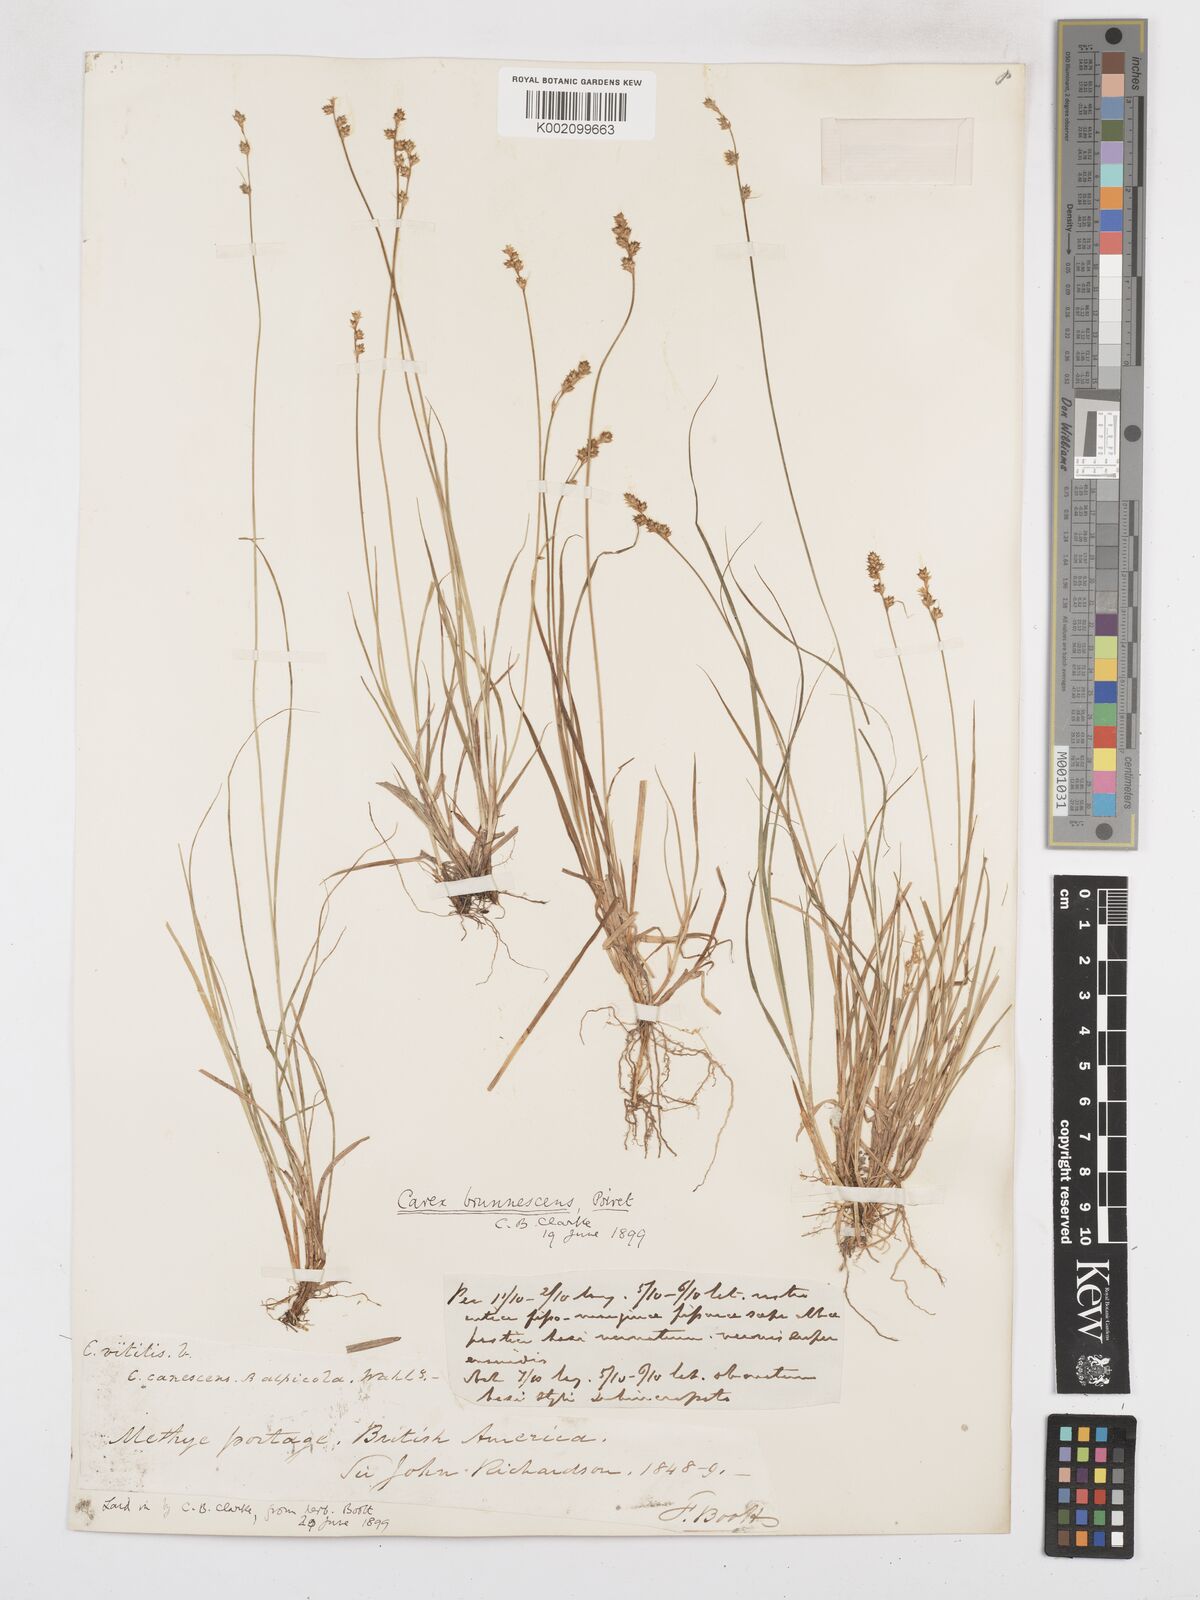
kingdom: Plantae
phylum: Tracheophyta
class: Liliopsida
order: Poales
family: Cyperaceae
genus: Carex
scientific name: Carex brunnescens
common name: Brown sedge
